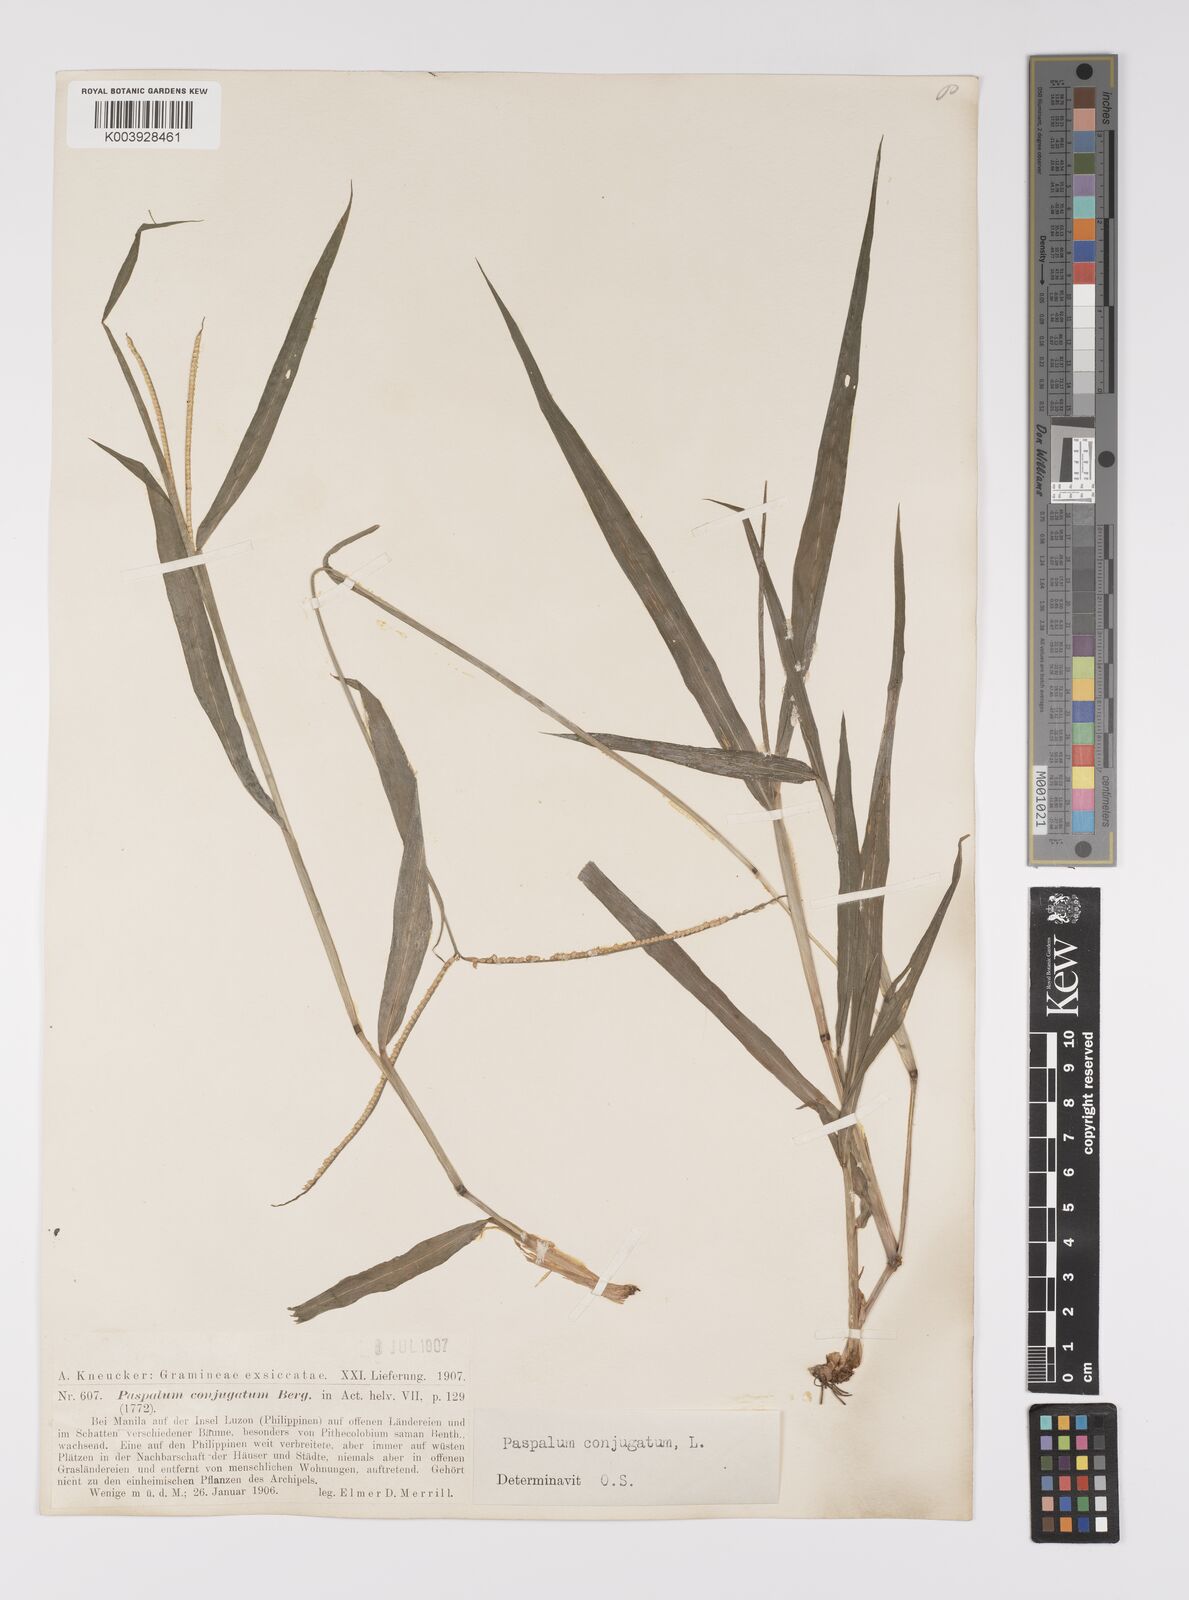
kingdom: Plantae
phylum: Tracheophyta
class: Liliopsida
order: Poales
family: Poaceae
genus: Paspalum
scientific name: Paspalum conjugatum
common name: Hilograss
